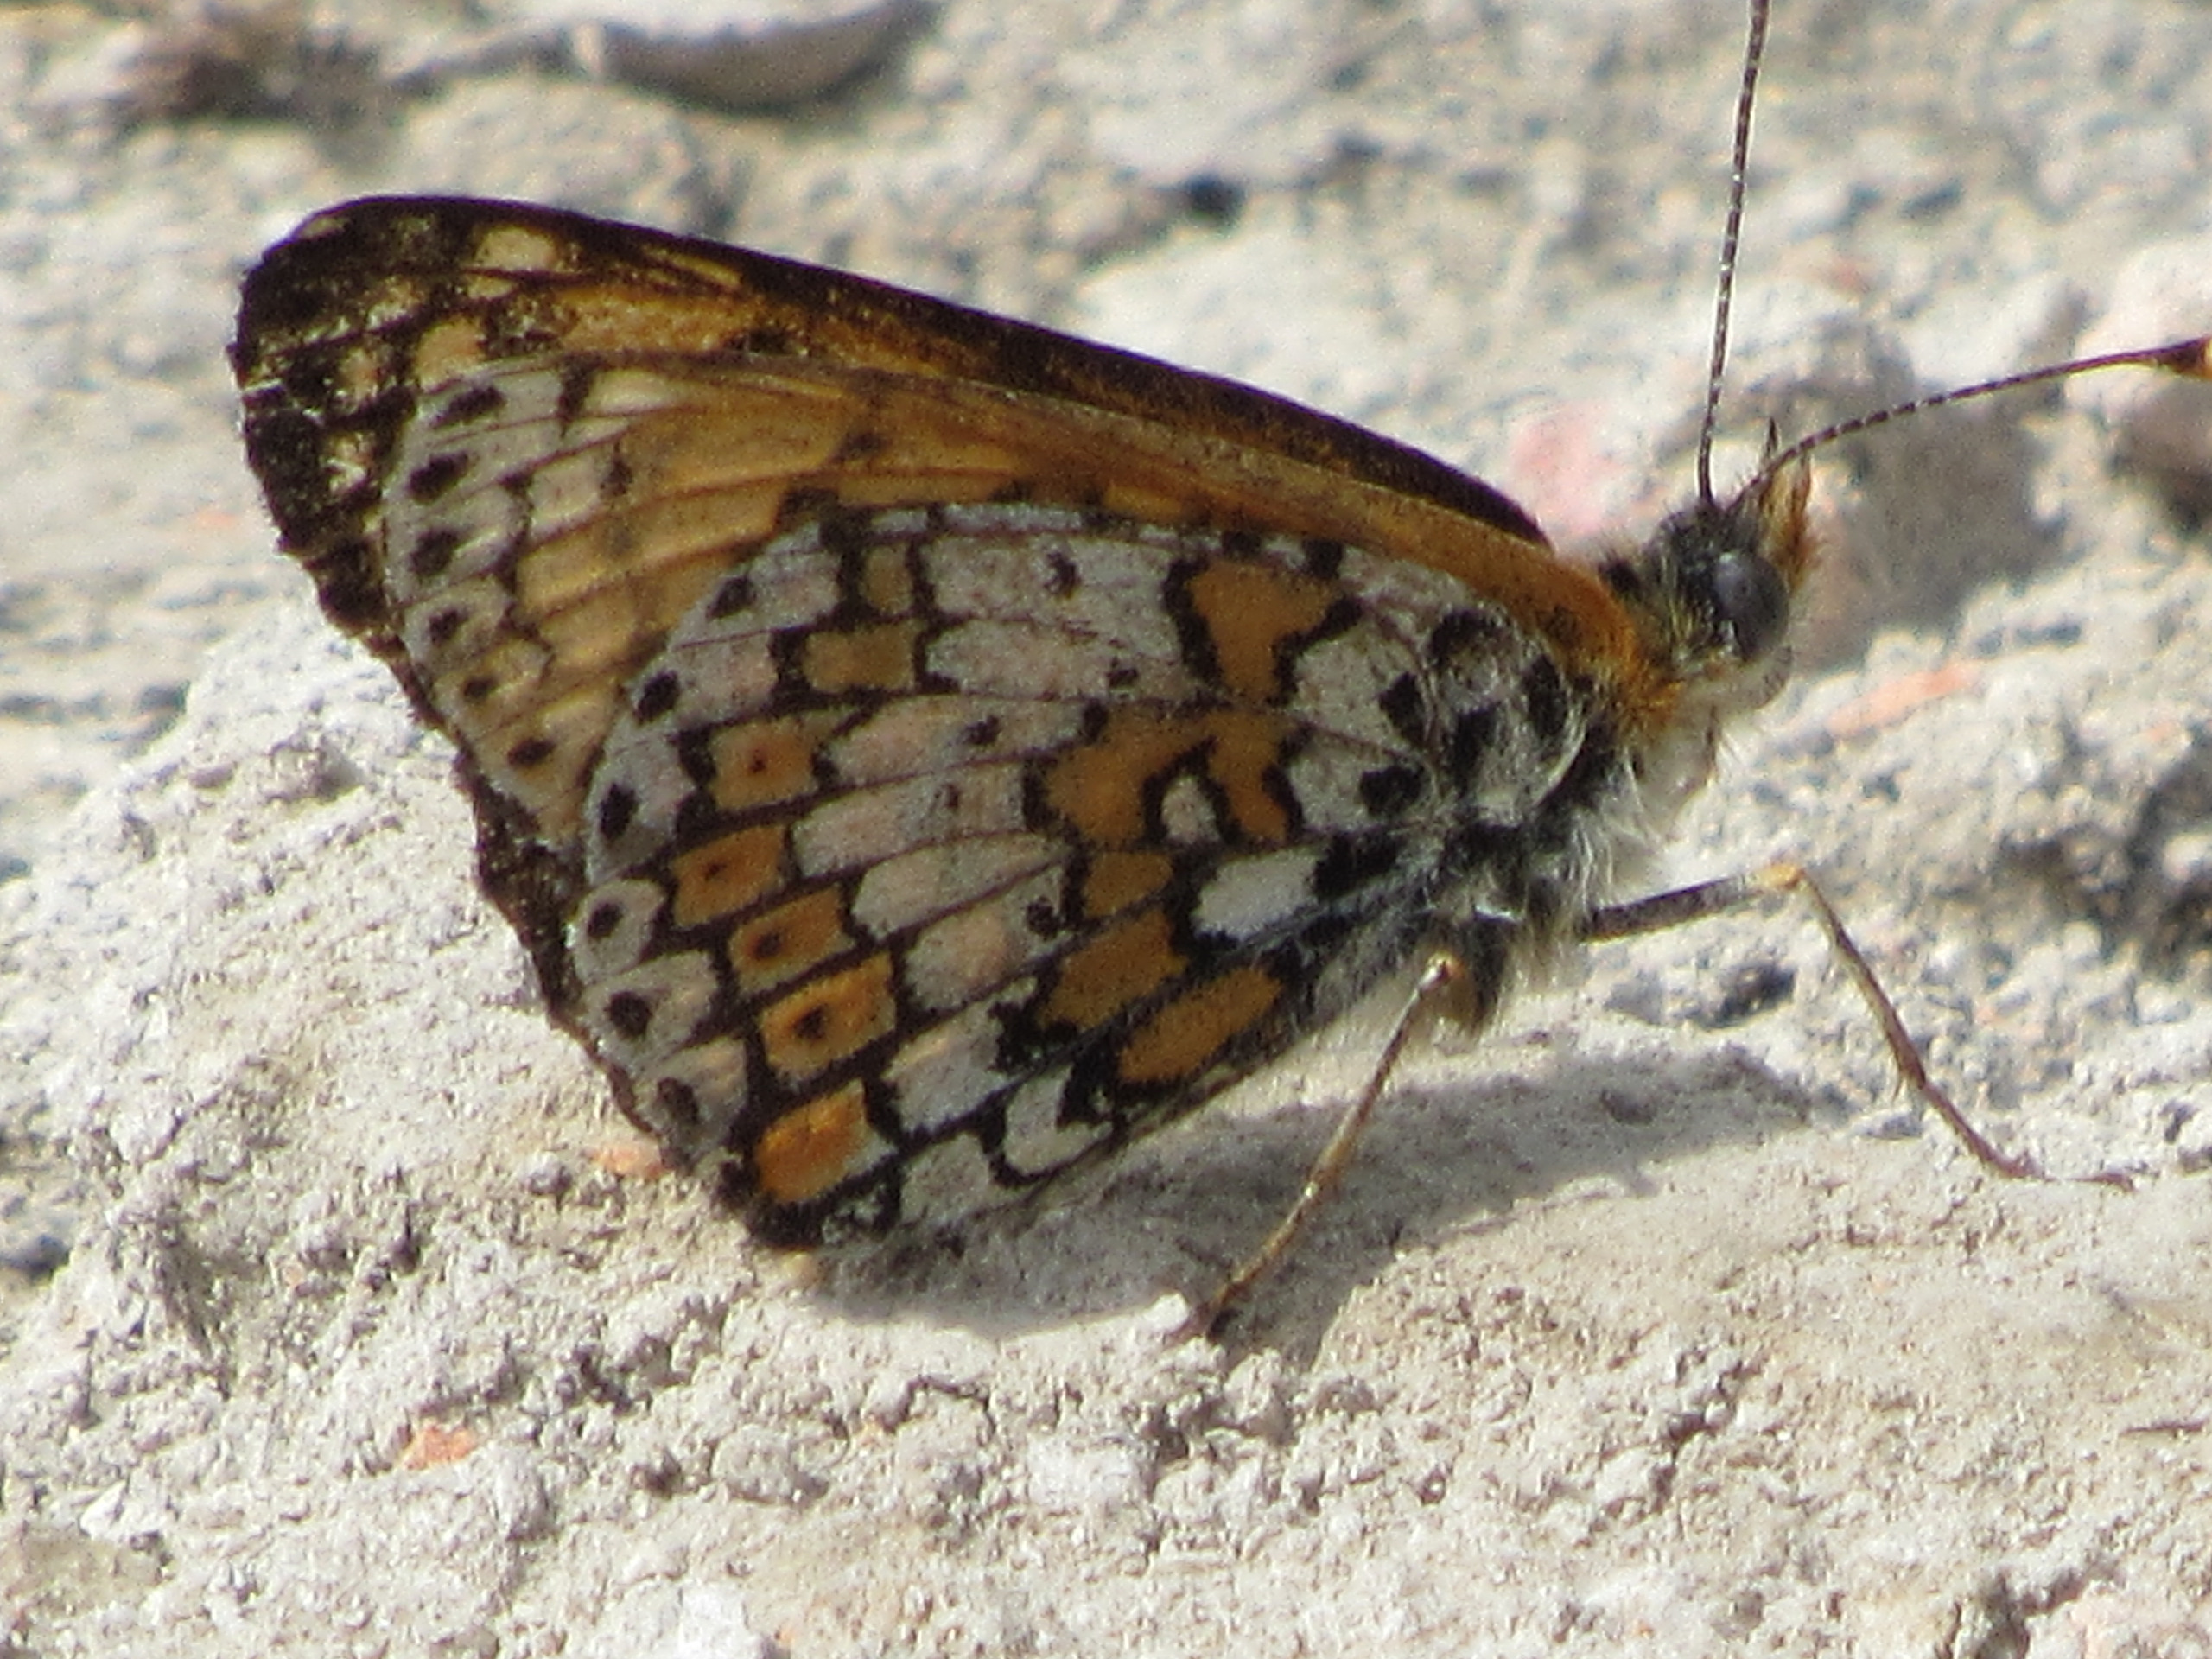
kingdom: Animalia
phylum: Arthropoda
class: Insecta
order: Lepidoptera
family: Nymphalidae
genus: Melitaea
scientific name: Melitaea cinxia
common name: Okkergul pletvinge
